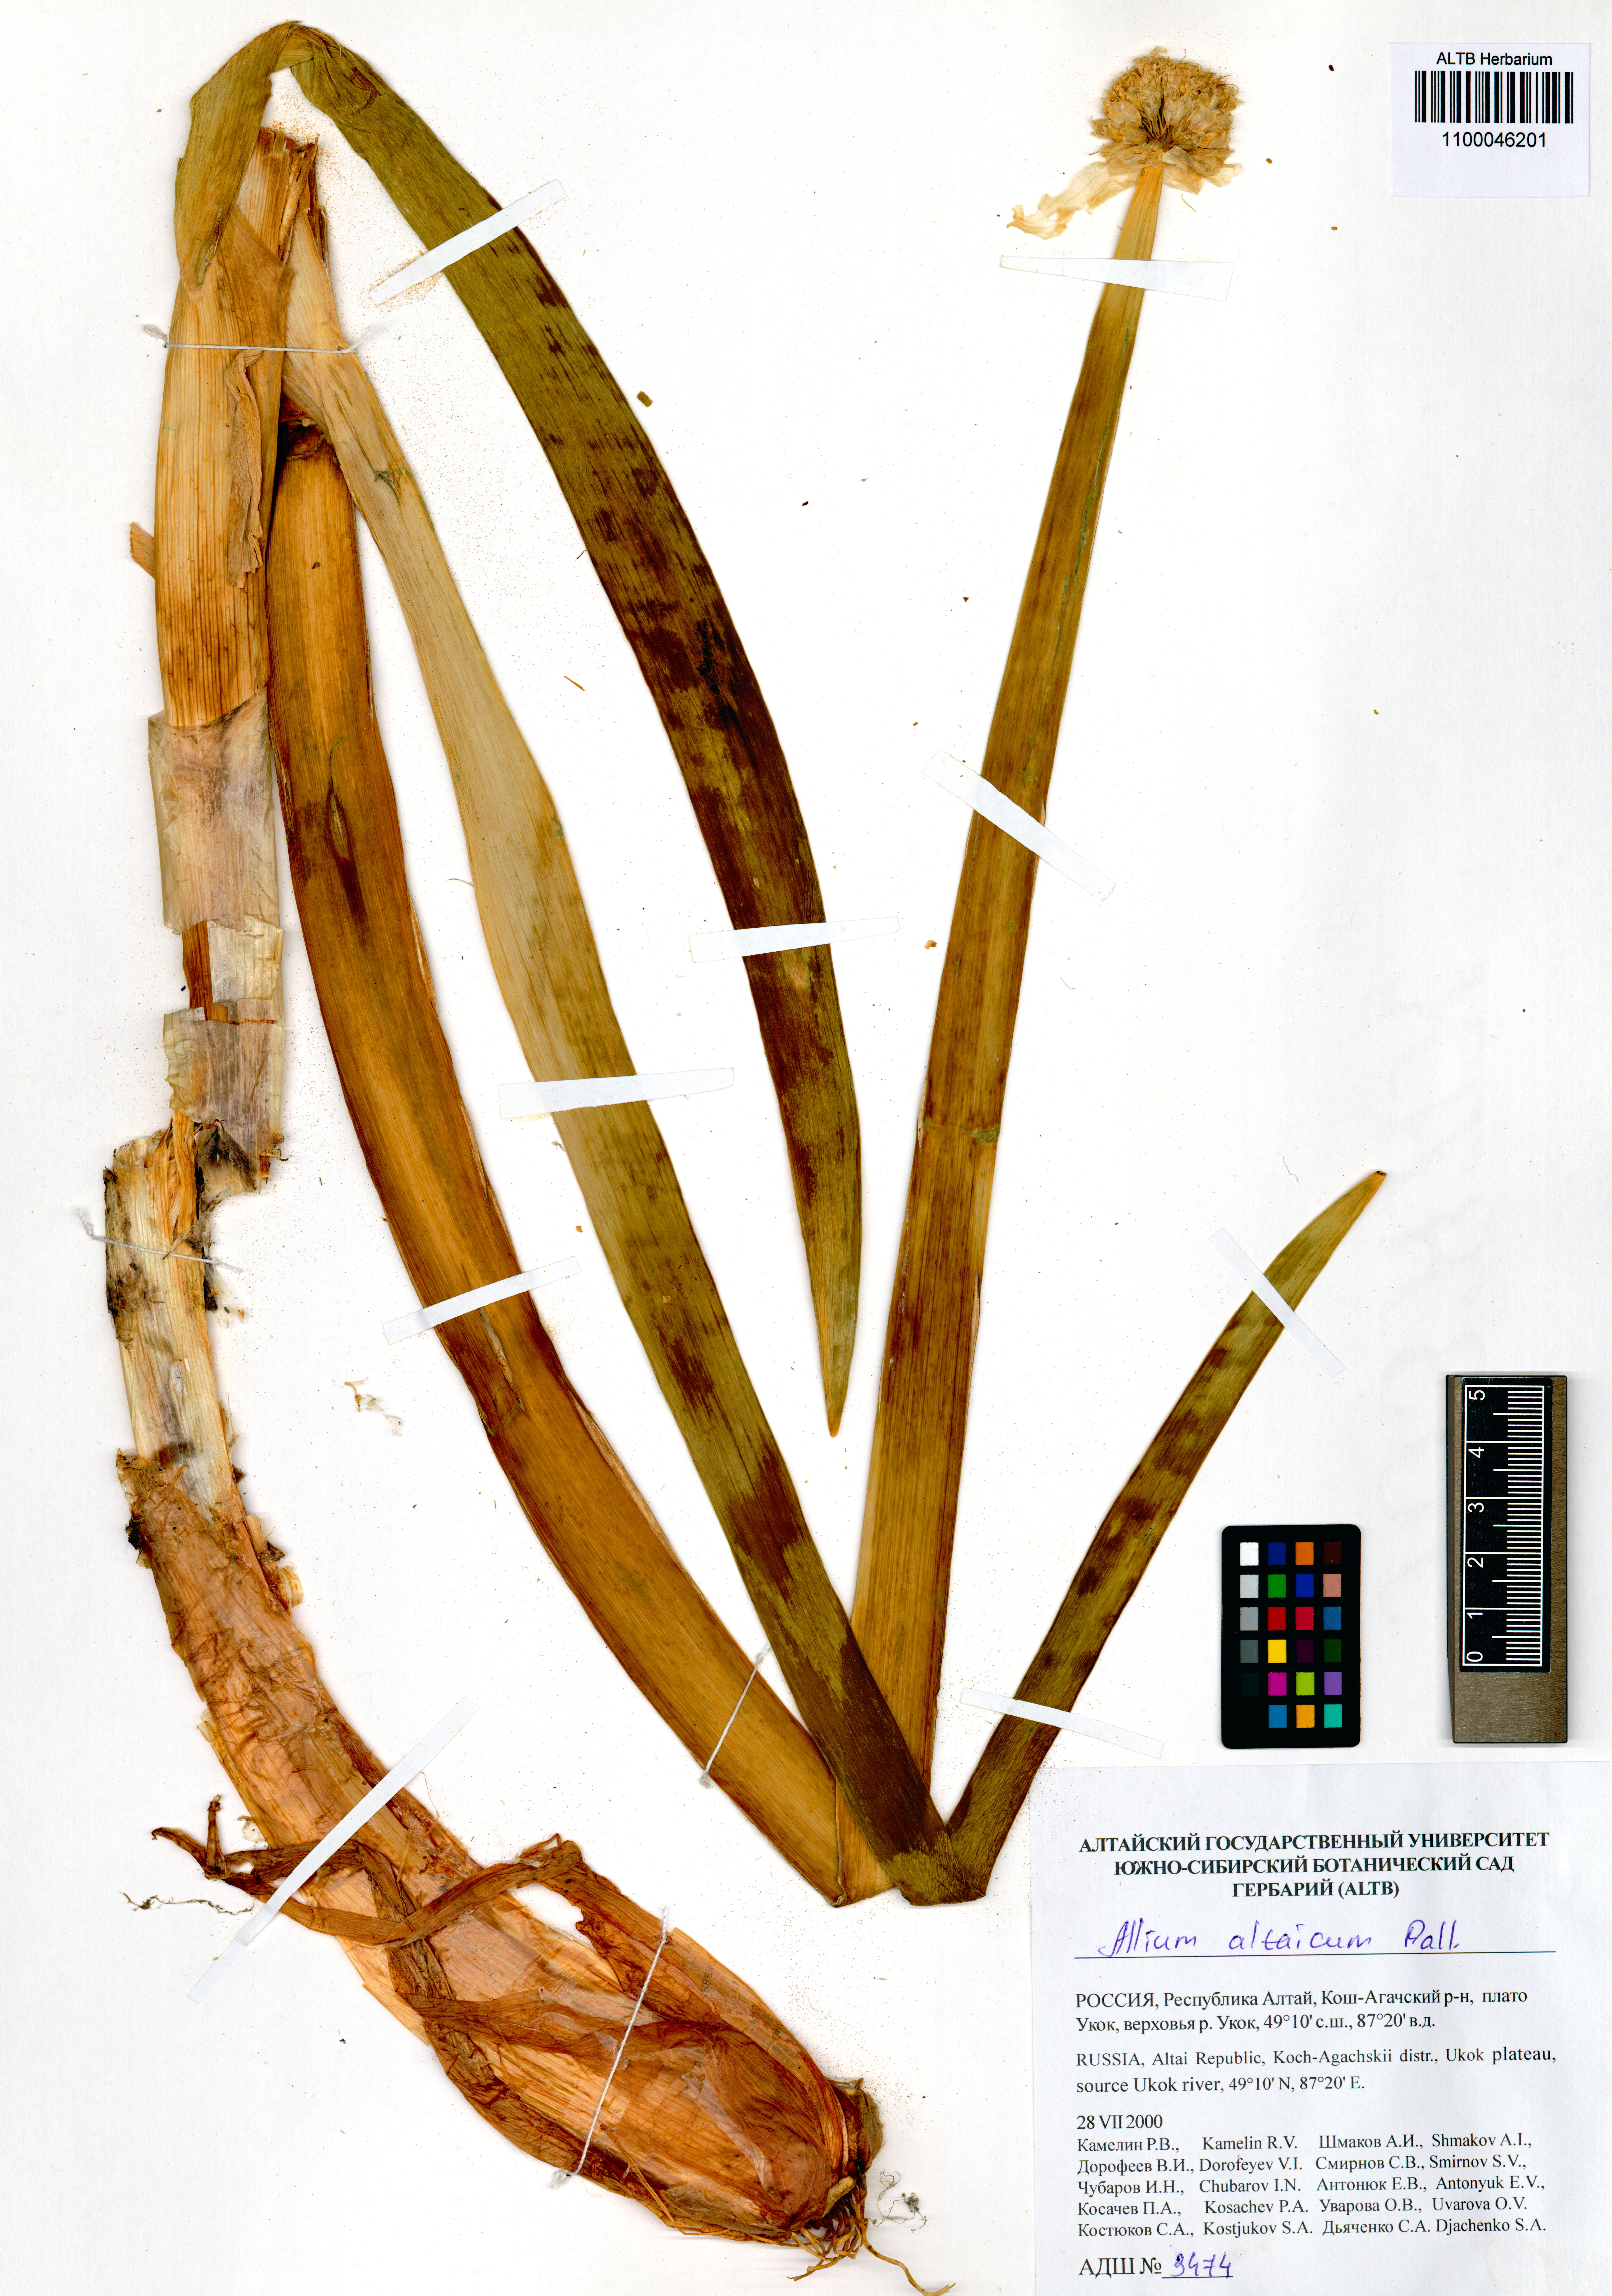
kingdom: Plantae
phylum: Tracheophyta
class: Liliopsida
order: Asparagales
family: Amaryllidaceae
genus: Allium
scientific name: Allium altaicum
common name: Altai onion
